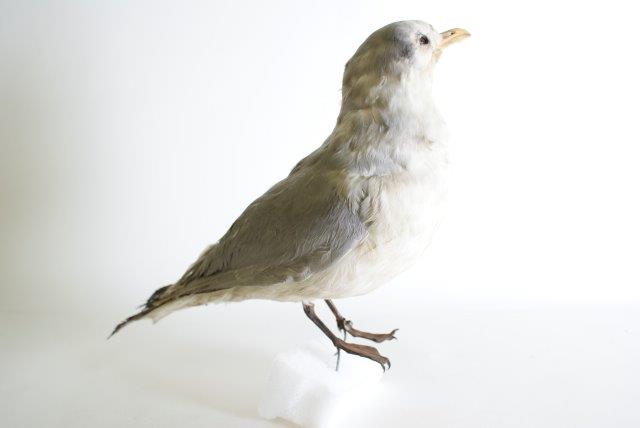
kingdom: Animalia
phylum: Chordata
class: Aves
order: Charadriiformes
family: Laridae
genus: Rissa
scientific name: Rissa tridactyla
